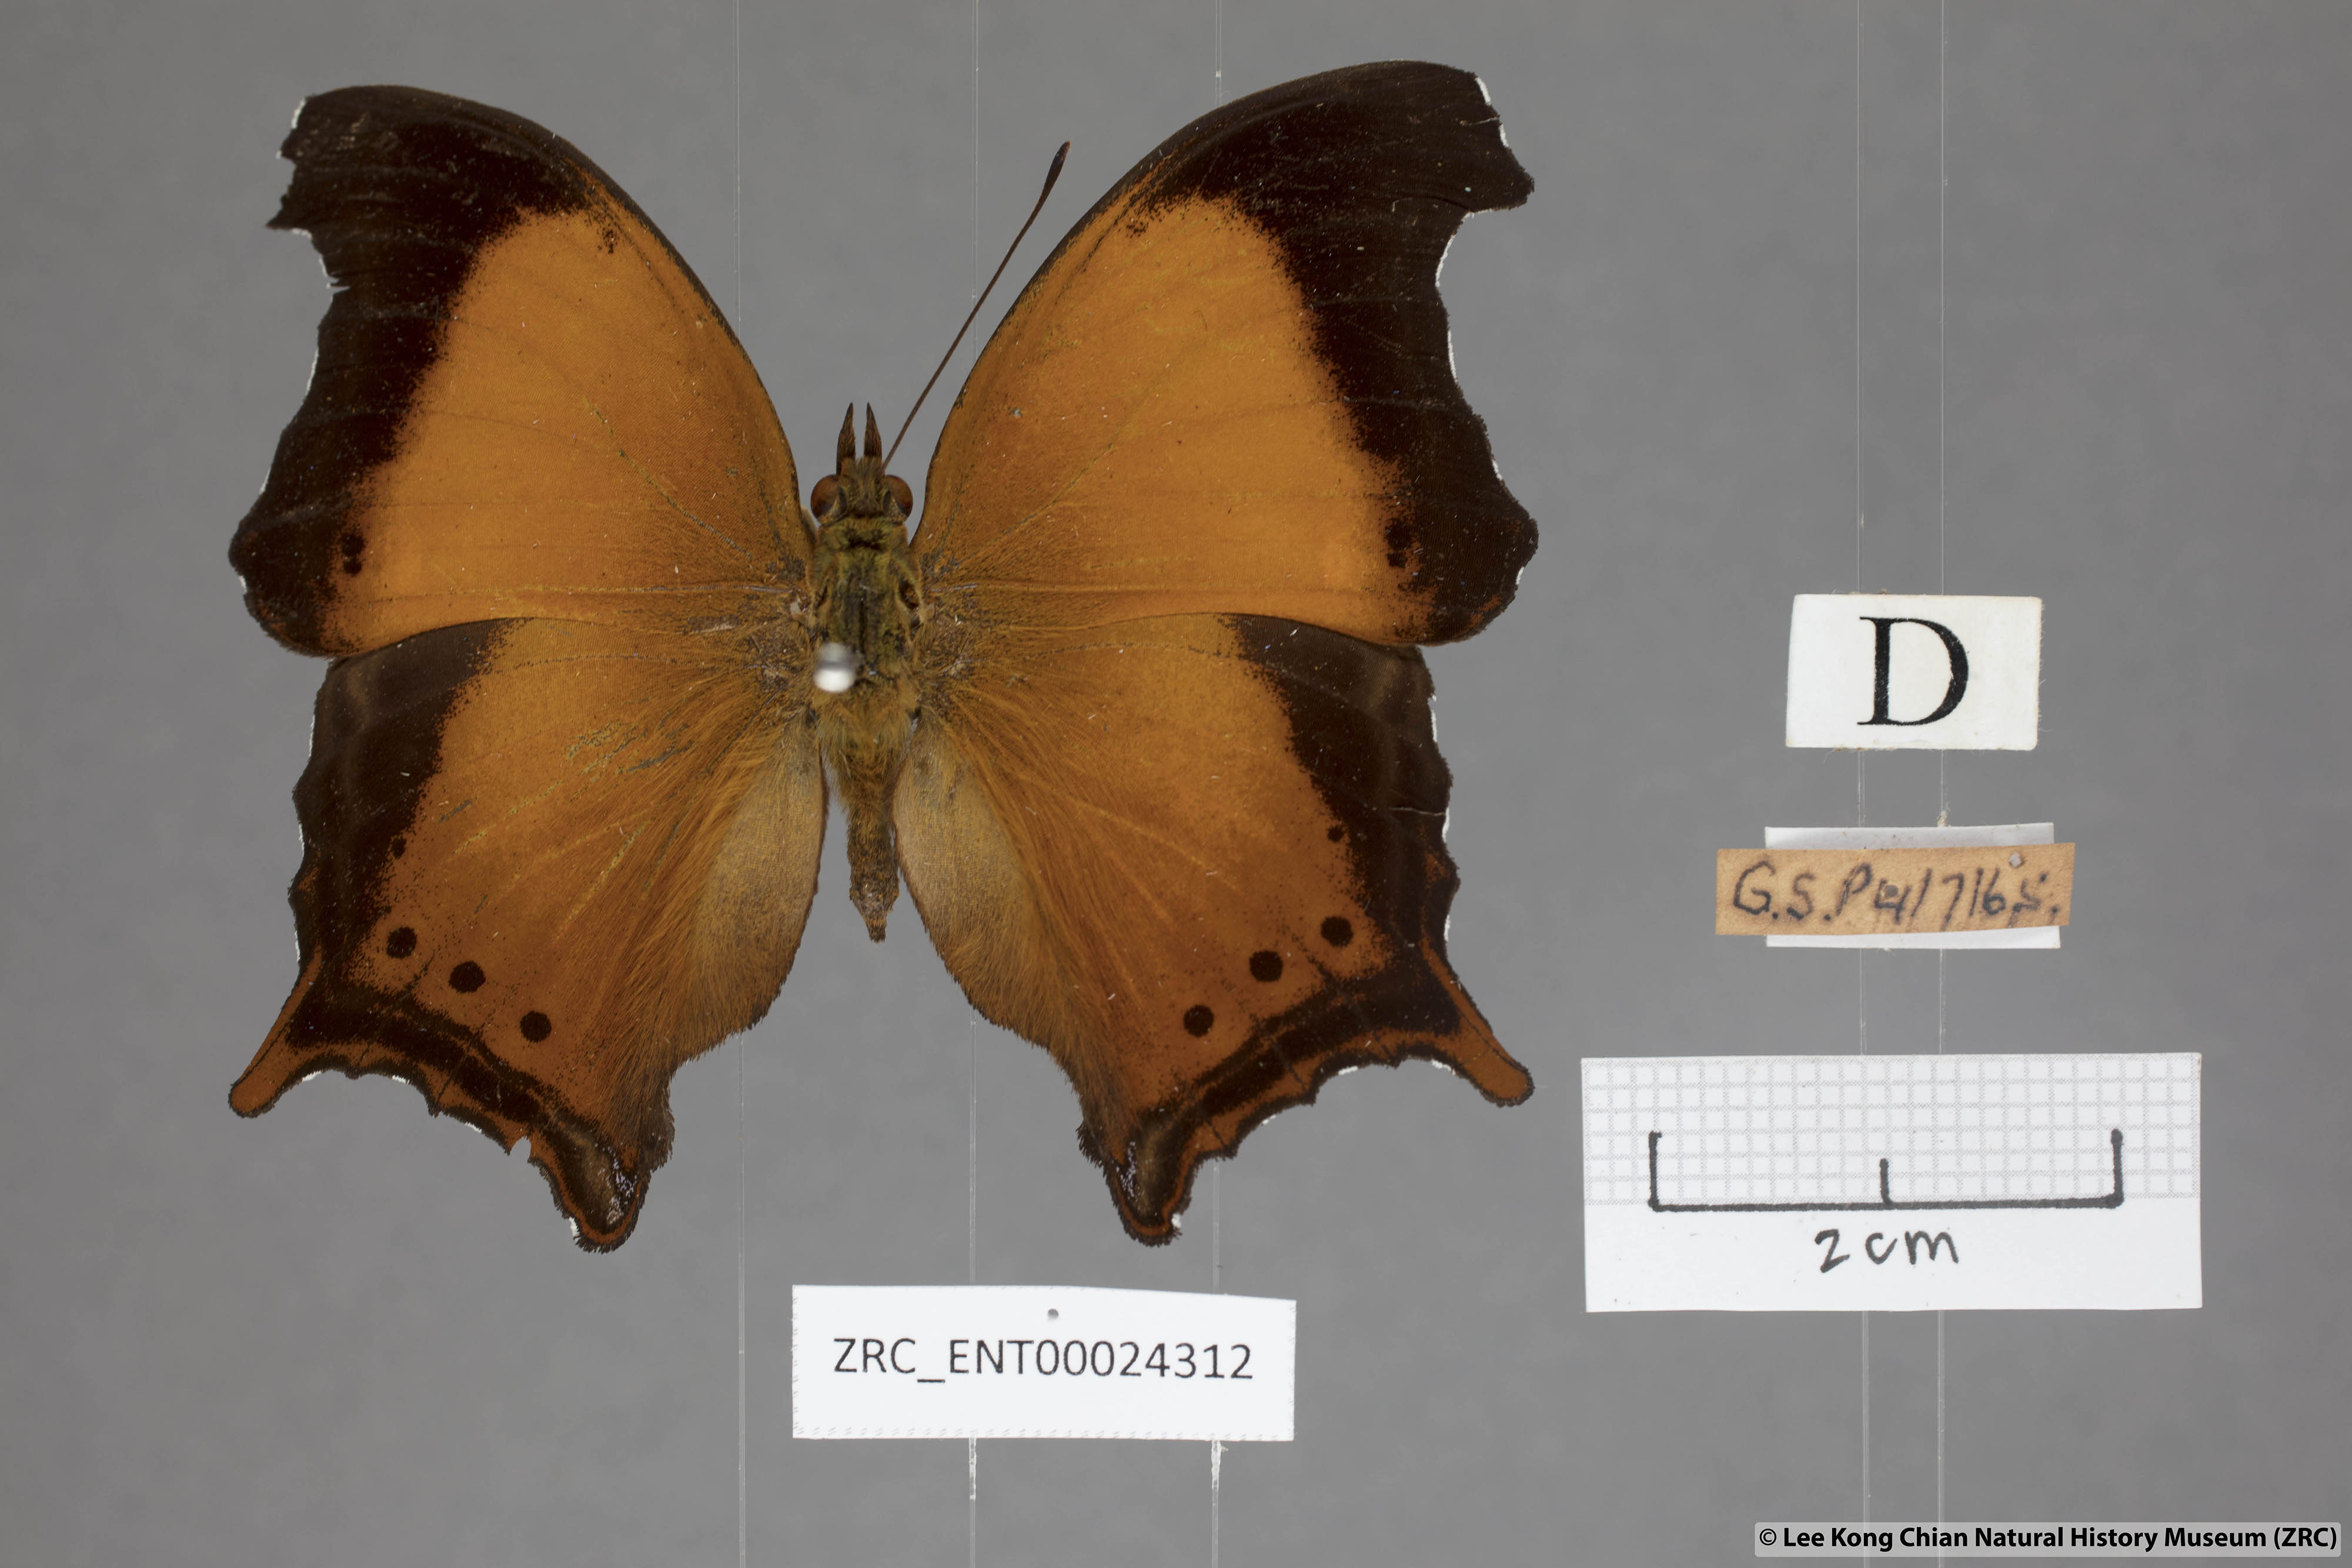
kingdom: Animalia
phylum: Arthropoda
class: Insecta
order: Lepidoptera
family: Nymphalidae
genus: Rhinopalpa
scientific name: Rhinopalpa polynice
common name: Wizard
